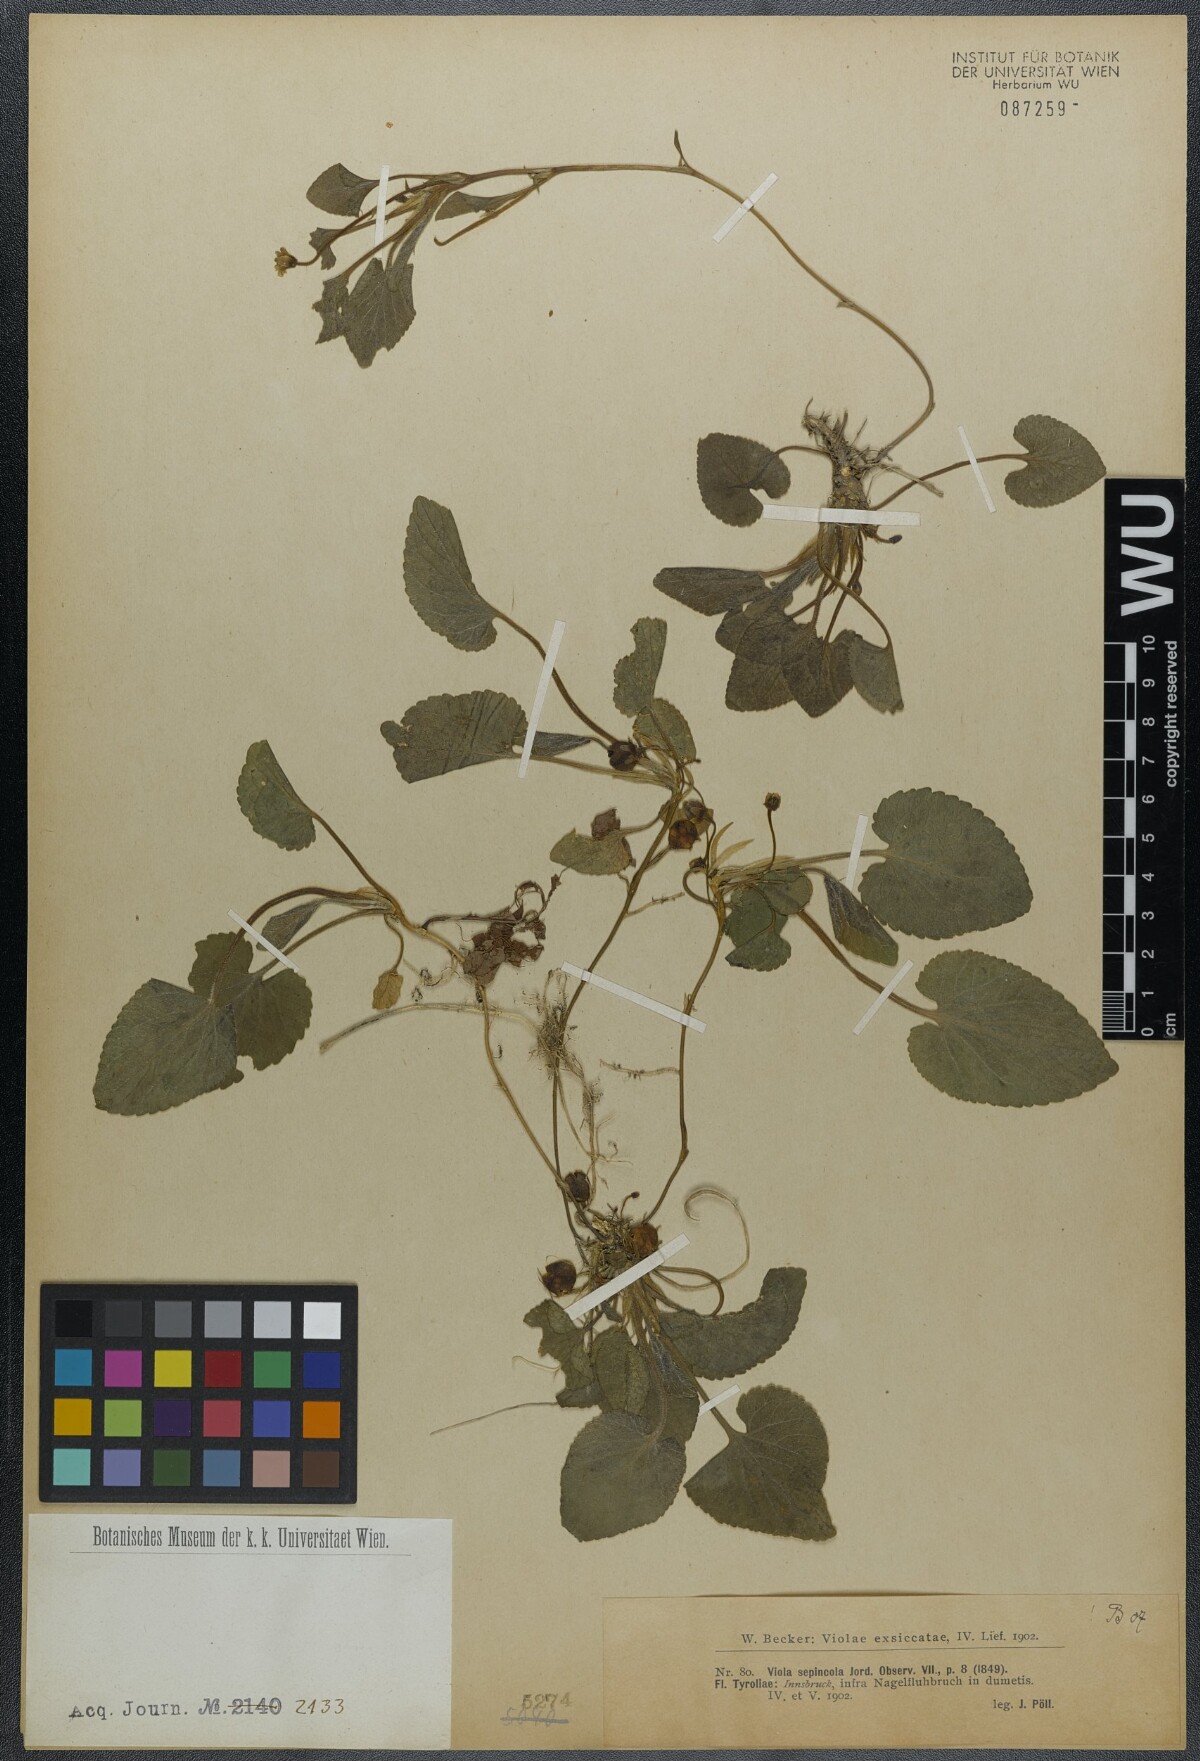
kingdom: Plantae
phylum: Tracheophyta
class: Magnoliopsida
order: Malpighiales
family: Violaceae
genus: Viola
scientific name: Viola suavis
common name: Russian violet
